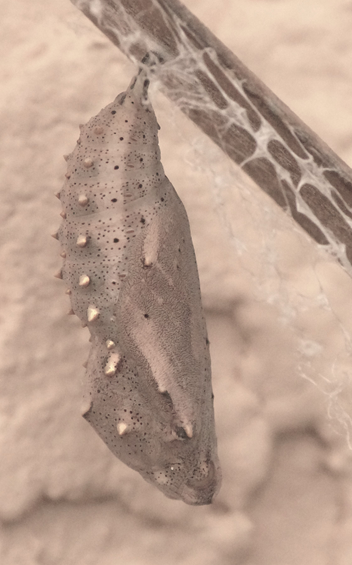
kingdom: Animalia
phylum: Arthropoda
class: Insecta
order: Lepidoptera
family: Nymphalidae
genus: Vanessa
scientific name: Vanessa cardui
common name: Painted Lady
